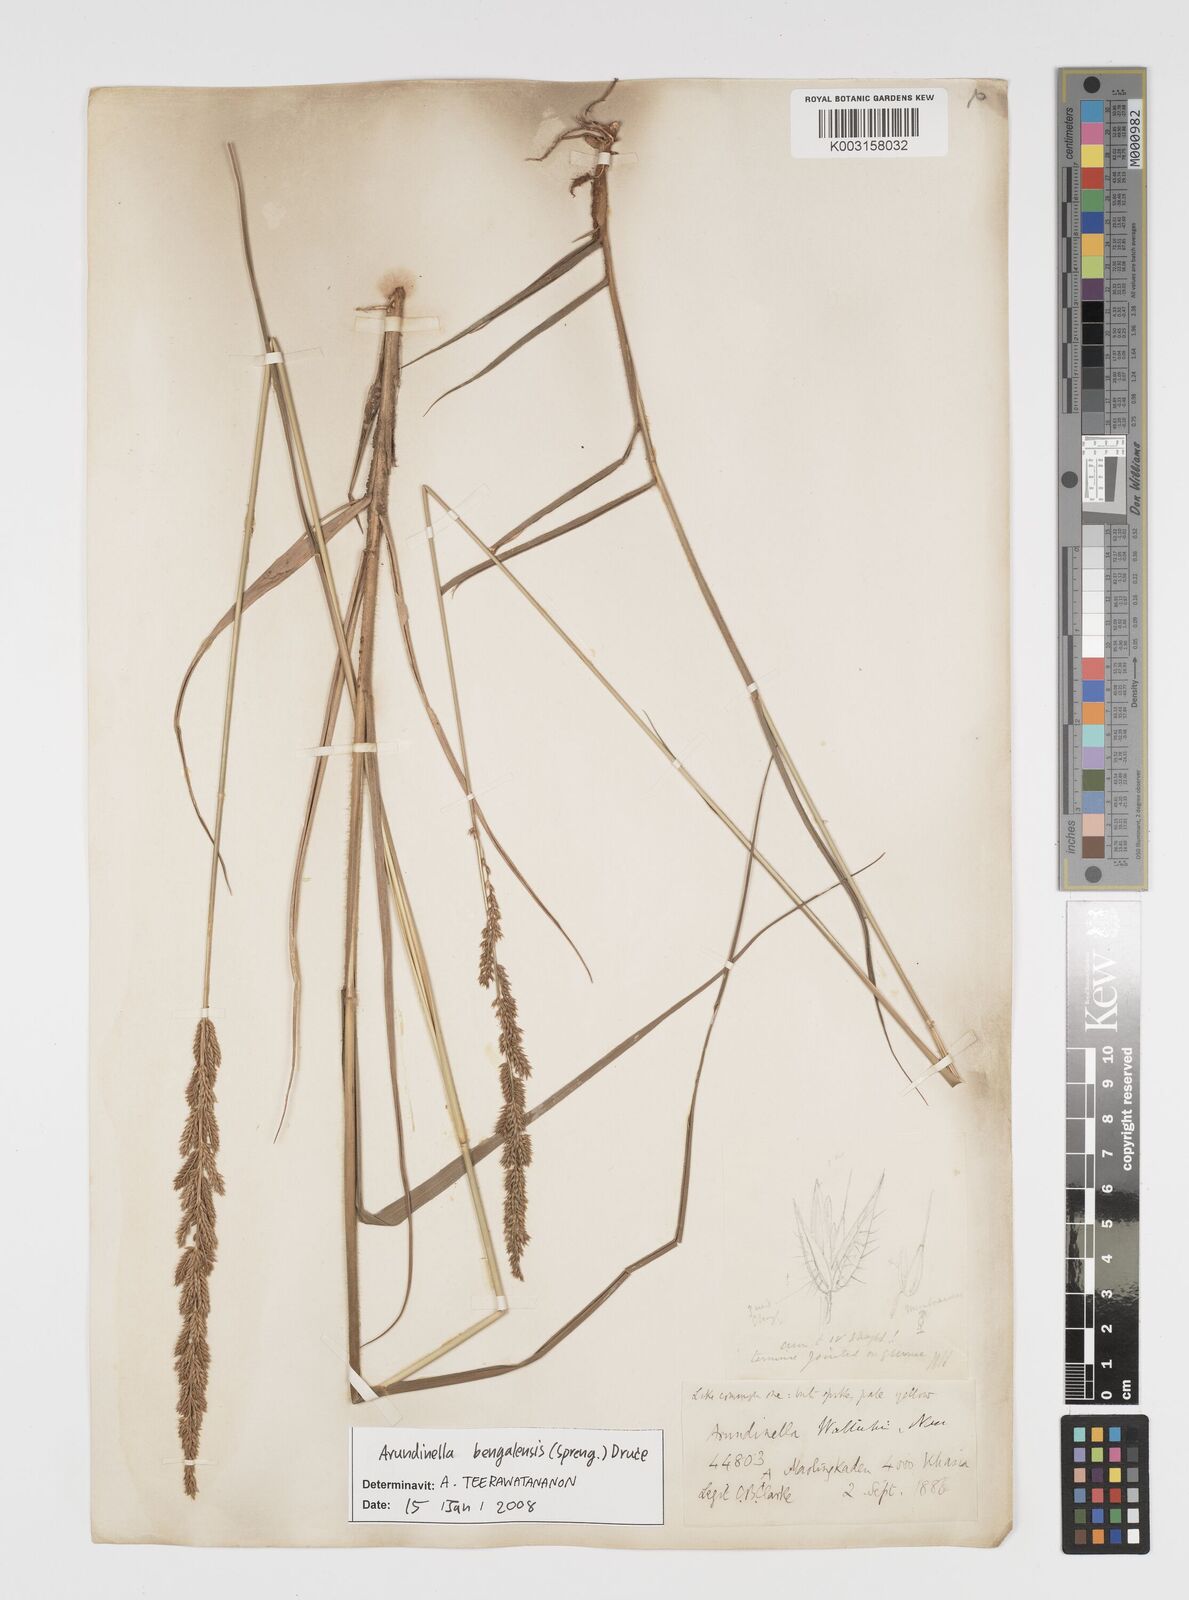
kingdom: Plantae
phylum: Tracheophyta
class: Liliopsida
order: Poales
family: Poaceae
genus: Arundinella
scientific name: Arundinella bengalensis
